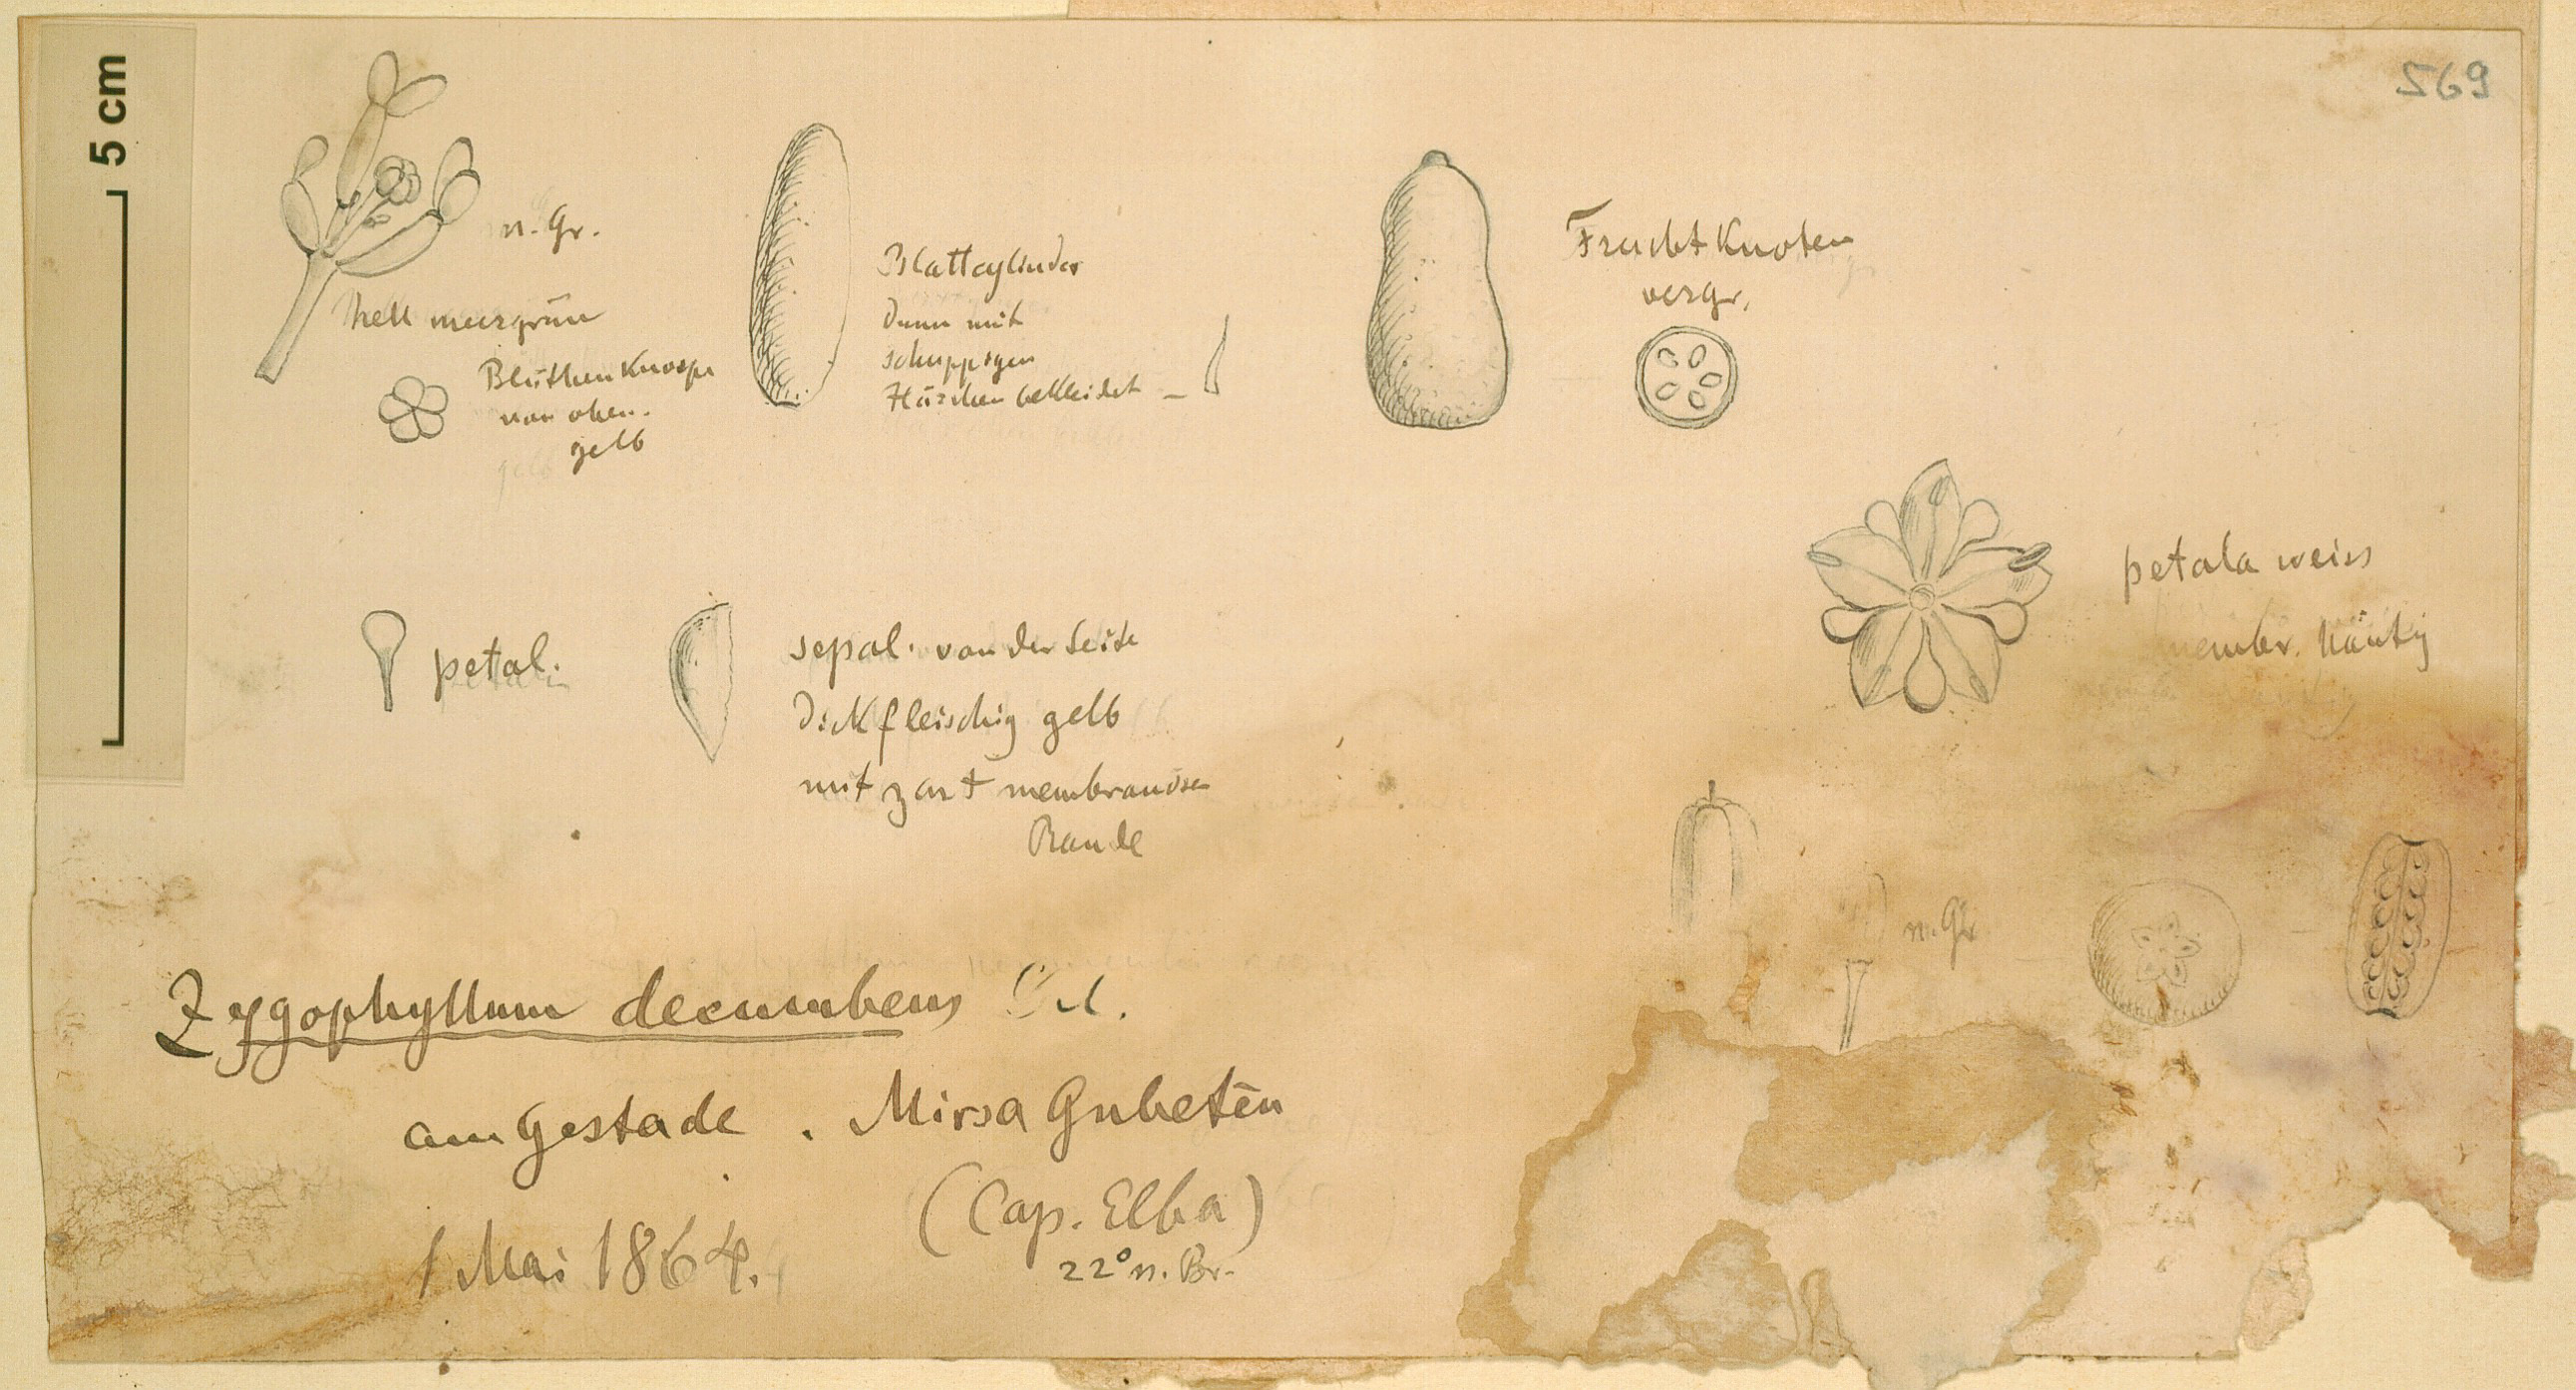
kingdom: Plantae
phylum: Tracheophyta
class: Magnoliopsida
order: Zygophyllales
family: Zygophyllaceae
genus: Tetraena
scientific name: Tetraena decumbens
